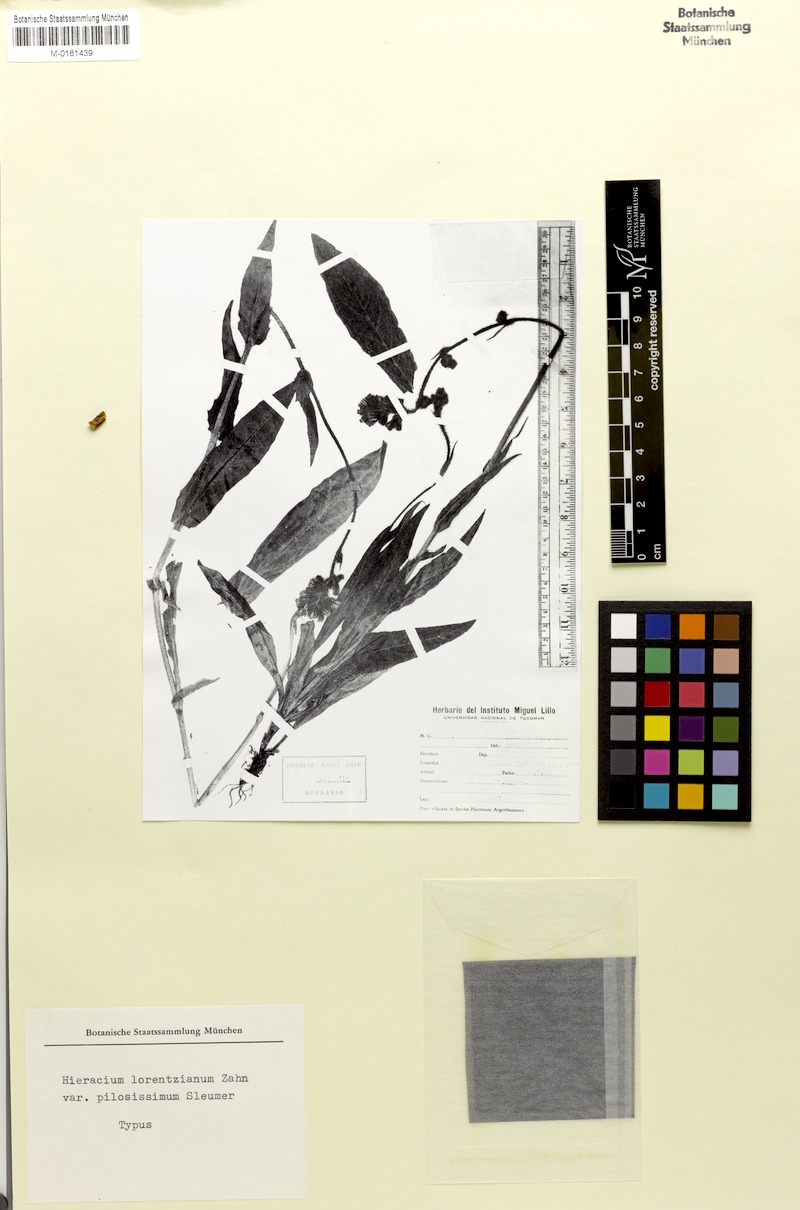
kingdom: Plantae
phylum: Tracheophyta
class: Magnoliopsida
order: Asterales
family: Asteraceae
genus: Hieracium
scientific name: Hieracium lorentzianum
